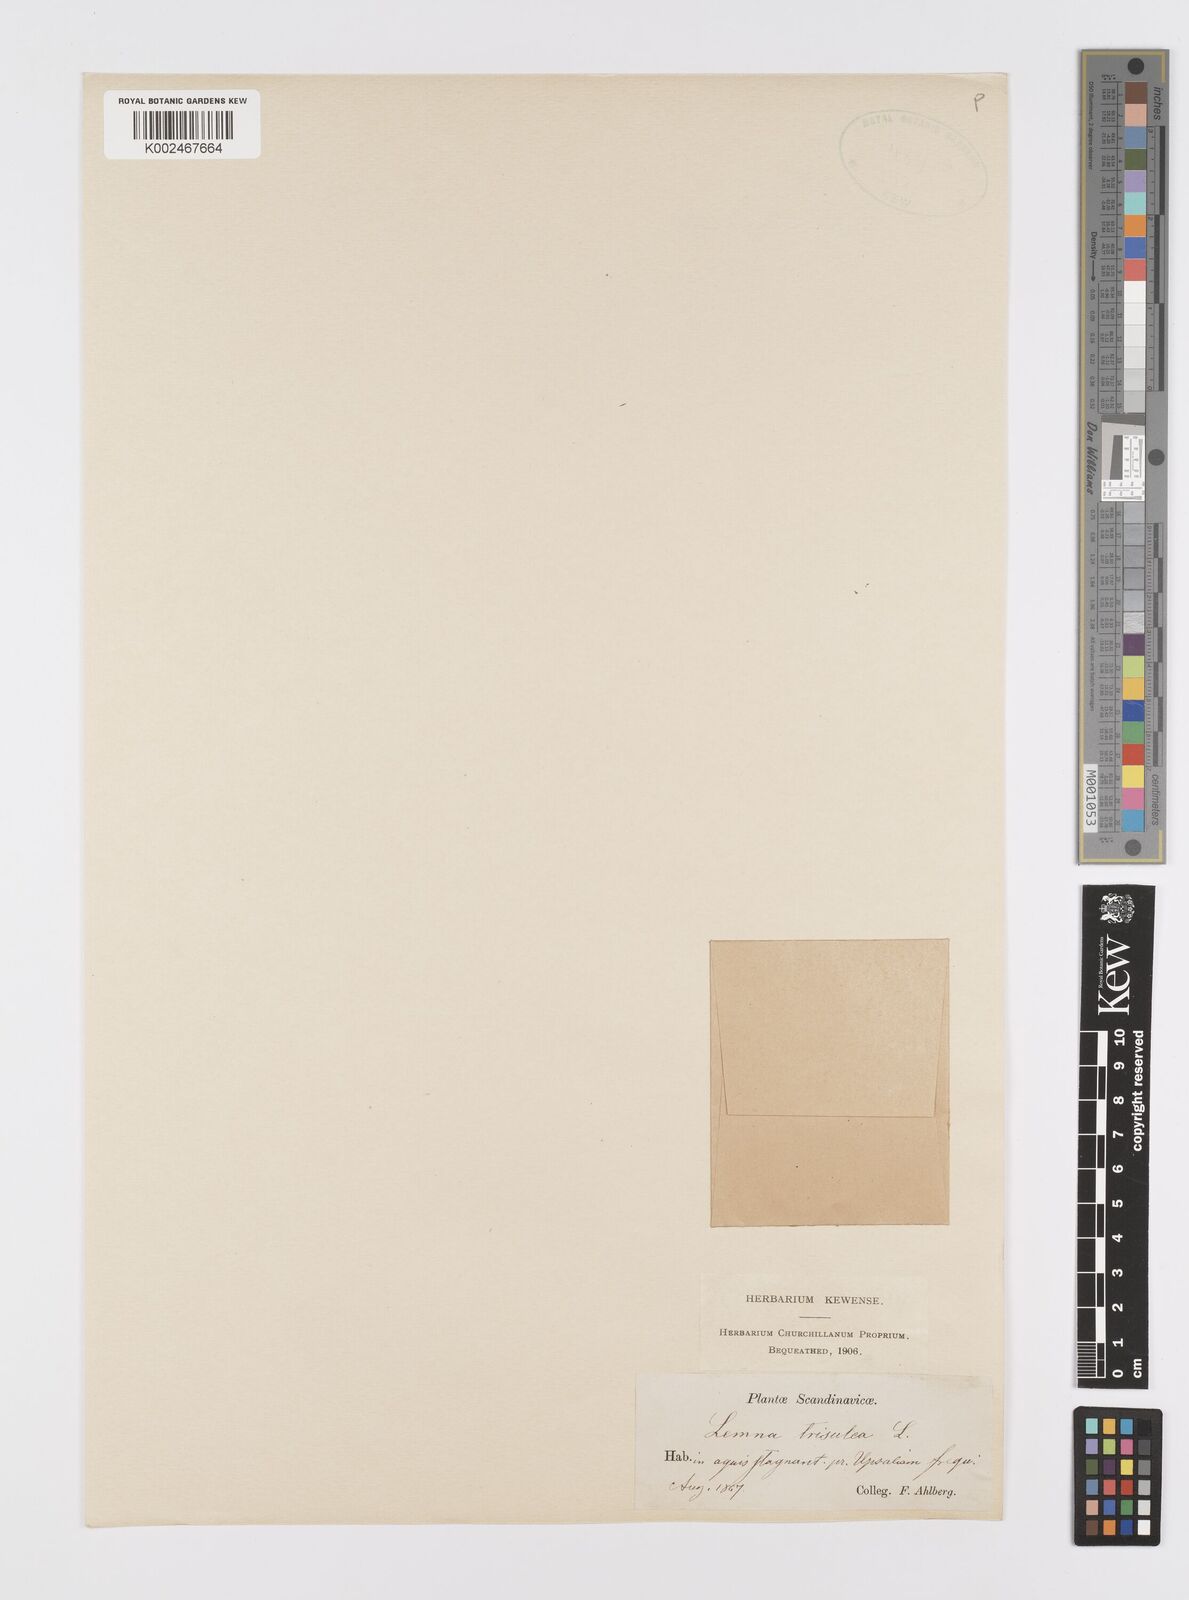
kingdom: Plantae
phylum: Tracheophyta
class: Liliopsida
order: Alismatales
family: Araceae
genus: Lemna
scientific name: Lemna trisulca
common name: Ivy-leaved duckweed
